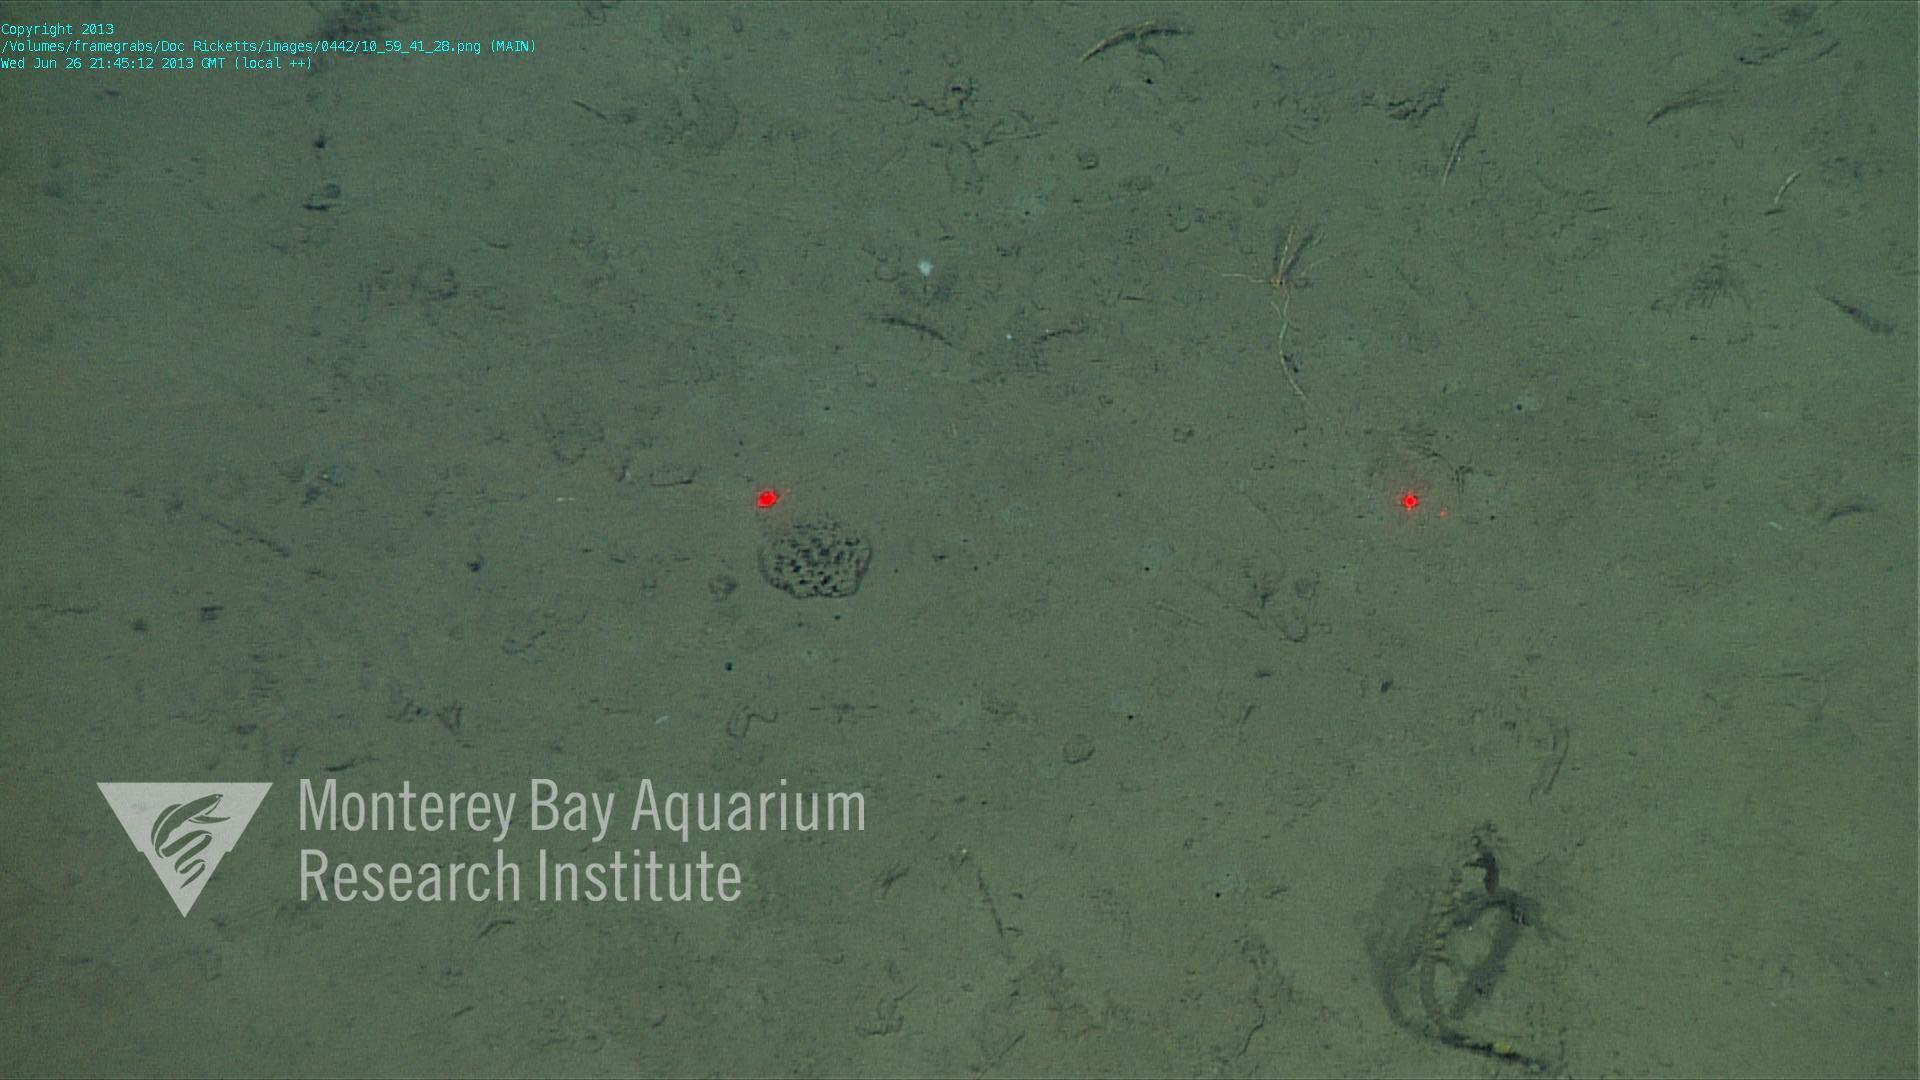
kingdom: Animalia
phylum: Porifera
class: Demospongiae
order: Poecilosclerida
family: Cladorhizidae
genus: Cladorhiza
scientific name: Cladorhiza
